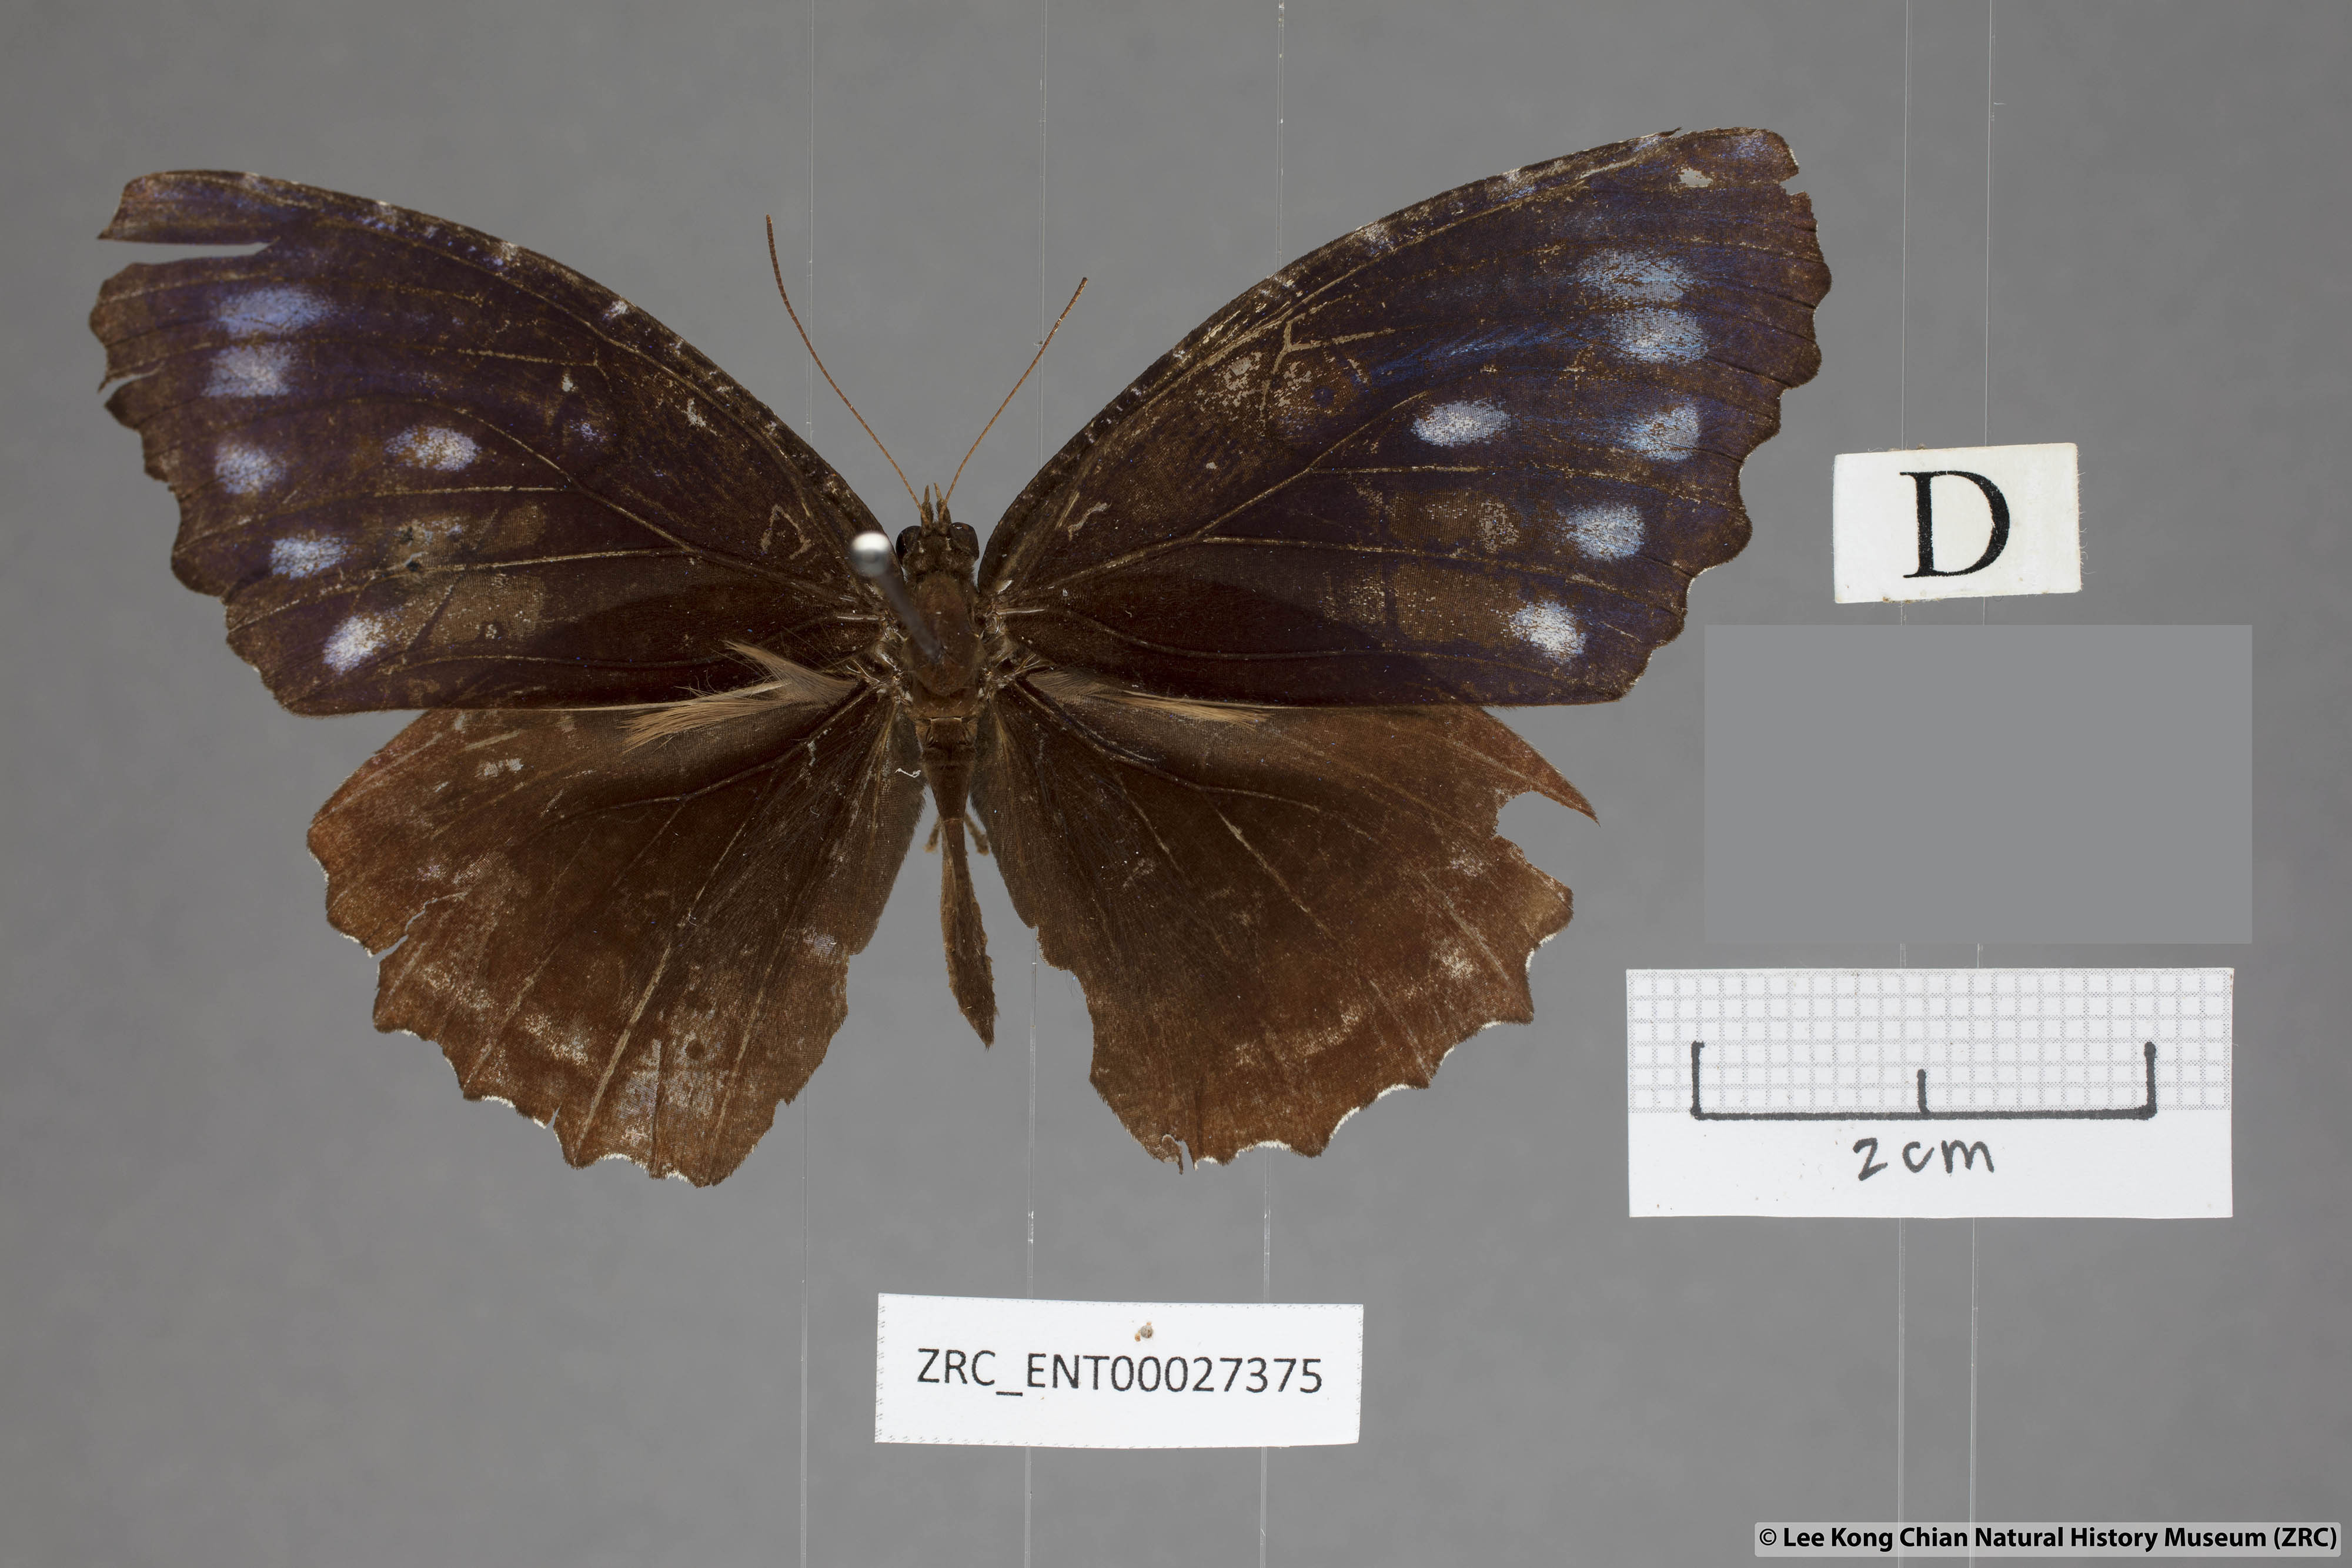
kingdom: Animalia
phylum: Arthropoda
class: Insecta
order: Lepidoptera
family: Nymphalidae
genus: Elymnias
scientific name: Elymnias casiphone
